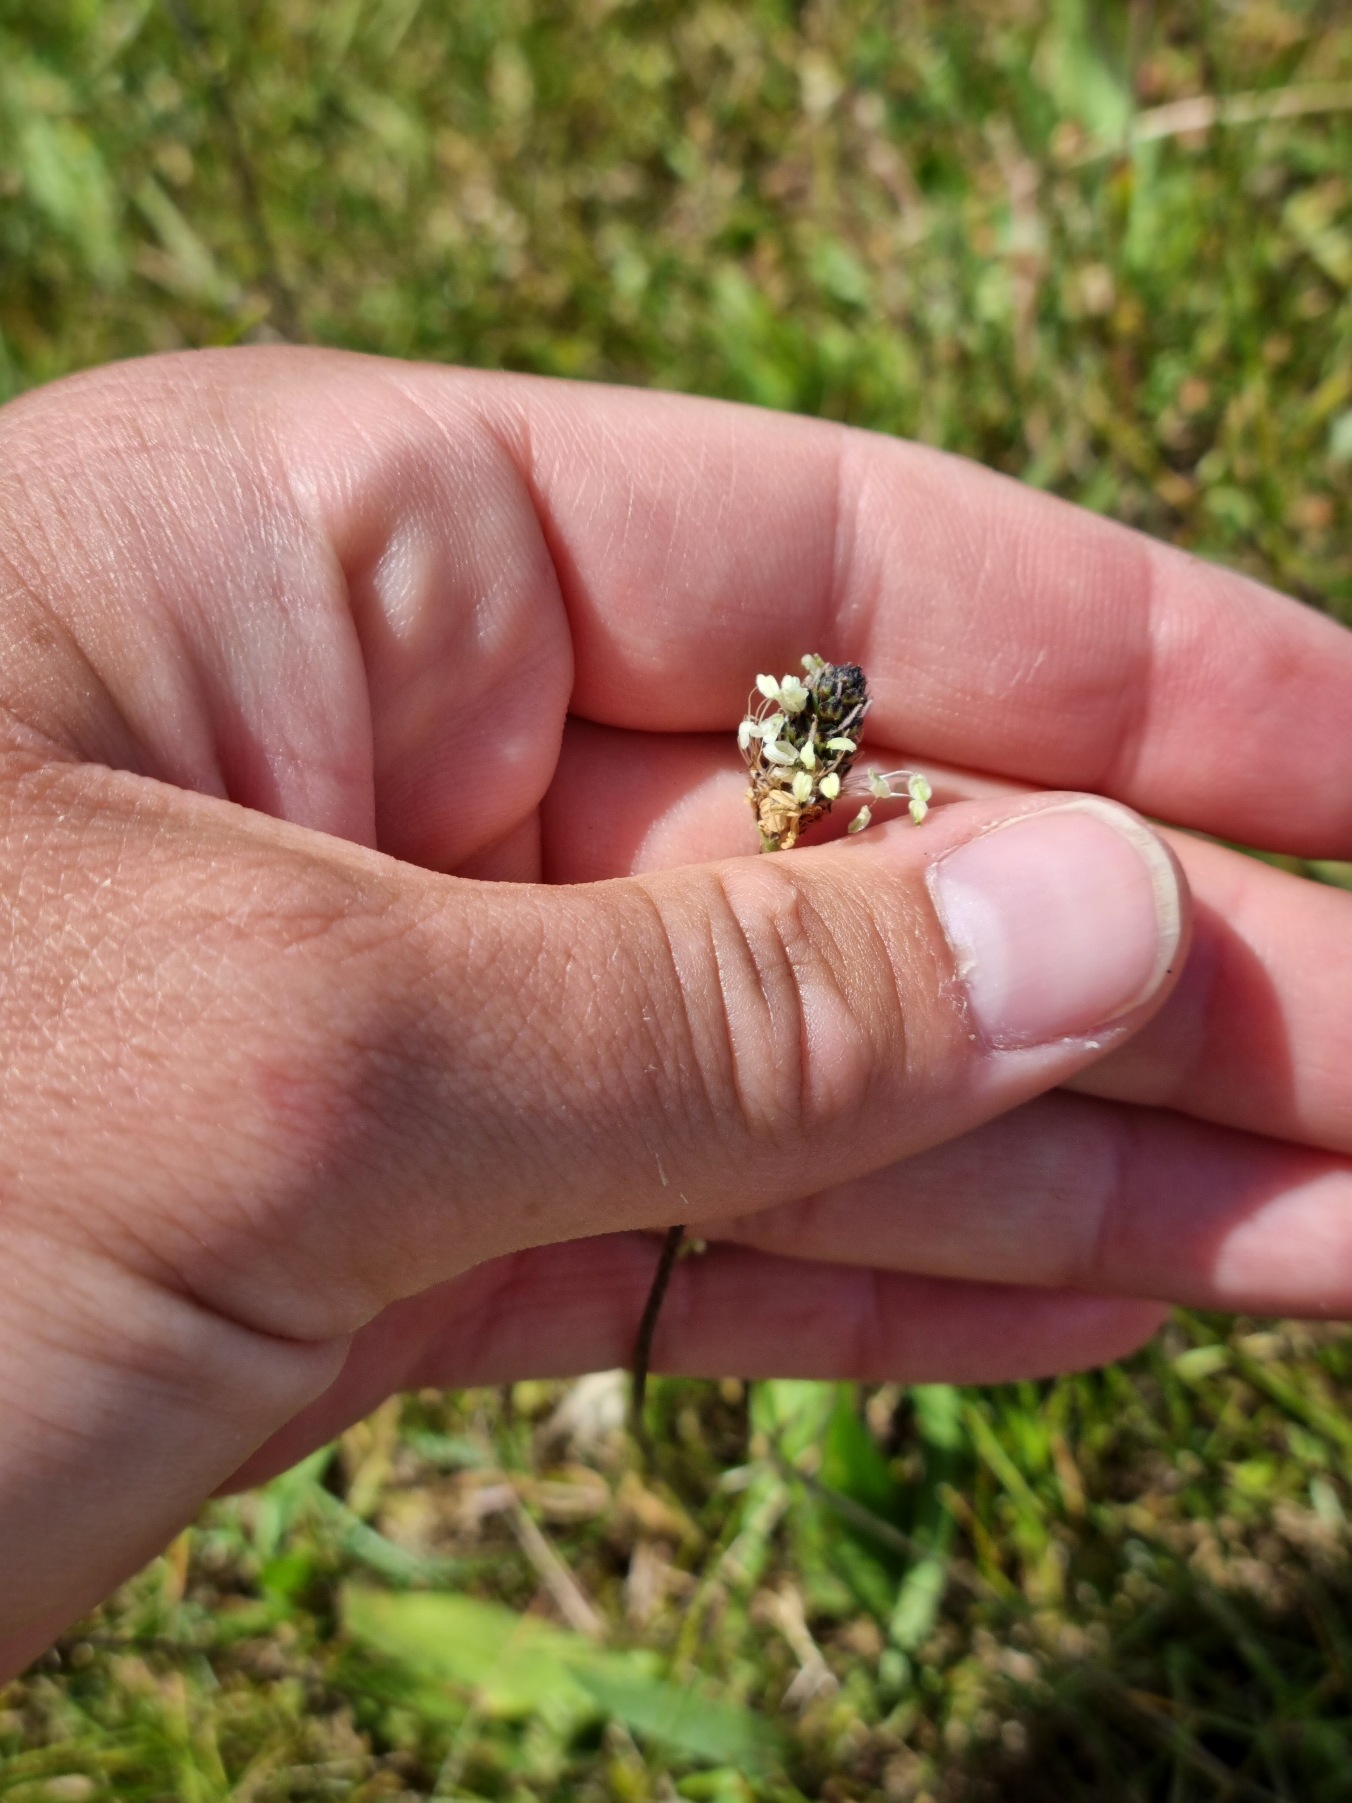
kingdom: Plantae
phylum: Tracheophyta
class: Magnoliopsida
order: Lamiales
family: Plantaginaceae
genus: Plantago
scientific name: Plantago lanceolata
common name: Lancet-vejbred
